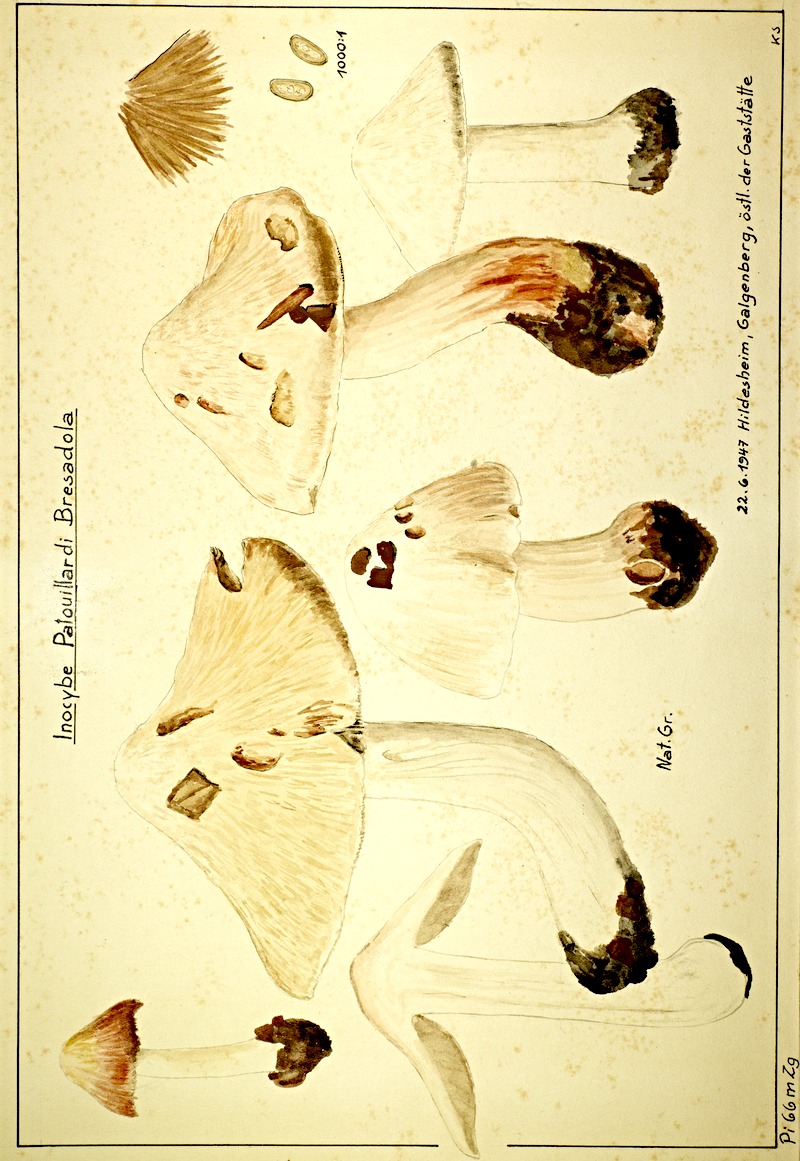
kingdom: Fungi
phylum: Basidiomycota
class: Agaricomycetes
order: Agaricales
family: Inocybaceae
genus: Inosperma
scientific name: Inosperma erubescens
